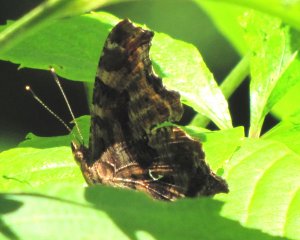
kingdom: Animalia
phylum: Arthropoda
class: Insecta
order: Lepidoptera
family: Nymphalidae
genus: Polygonia
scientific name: Polygonia comma
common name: Eastern Comma
